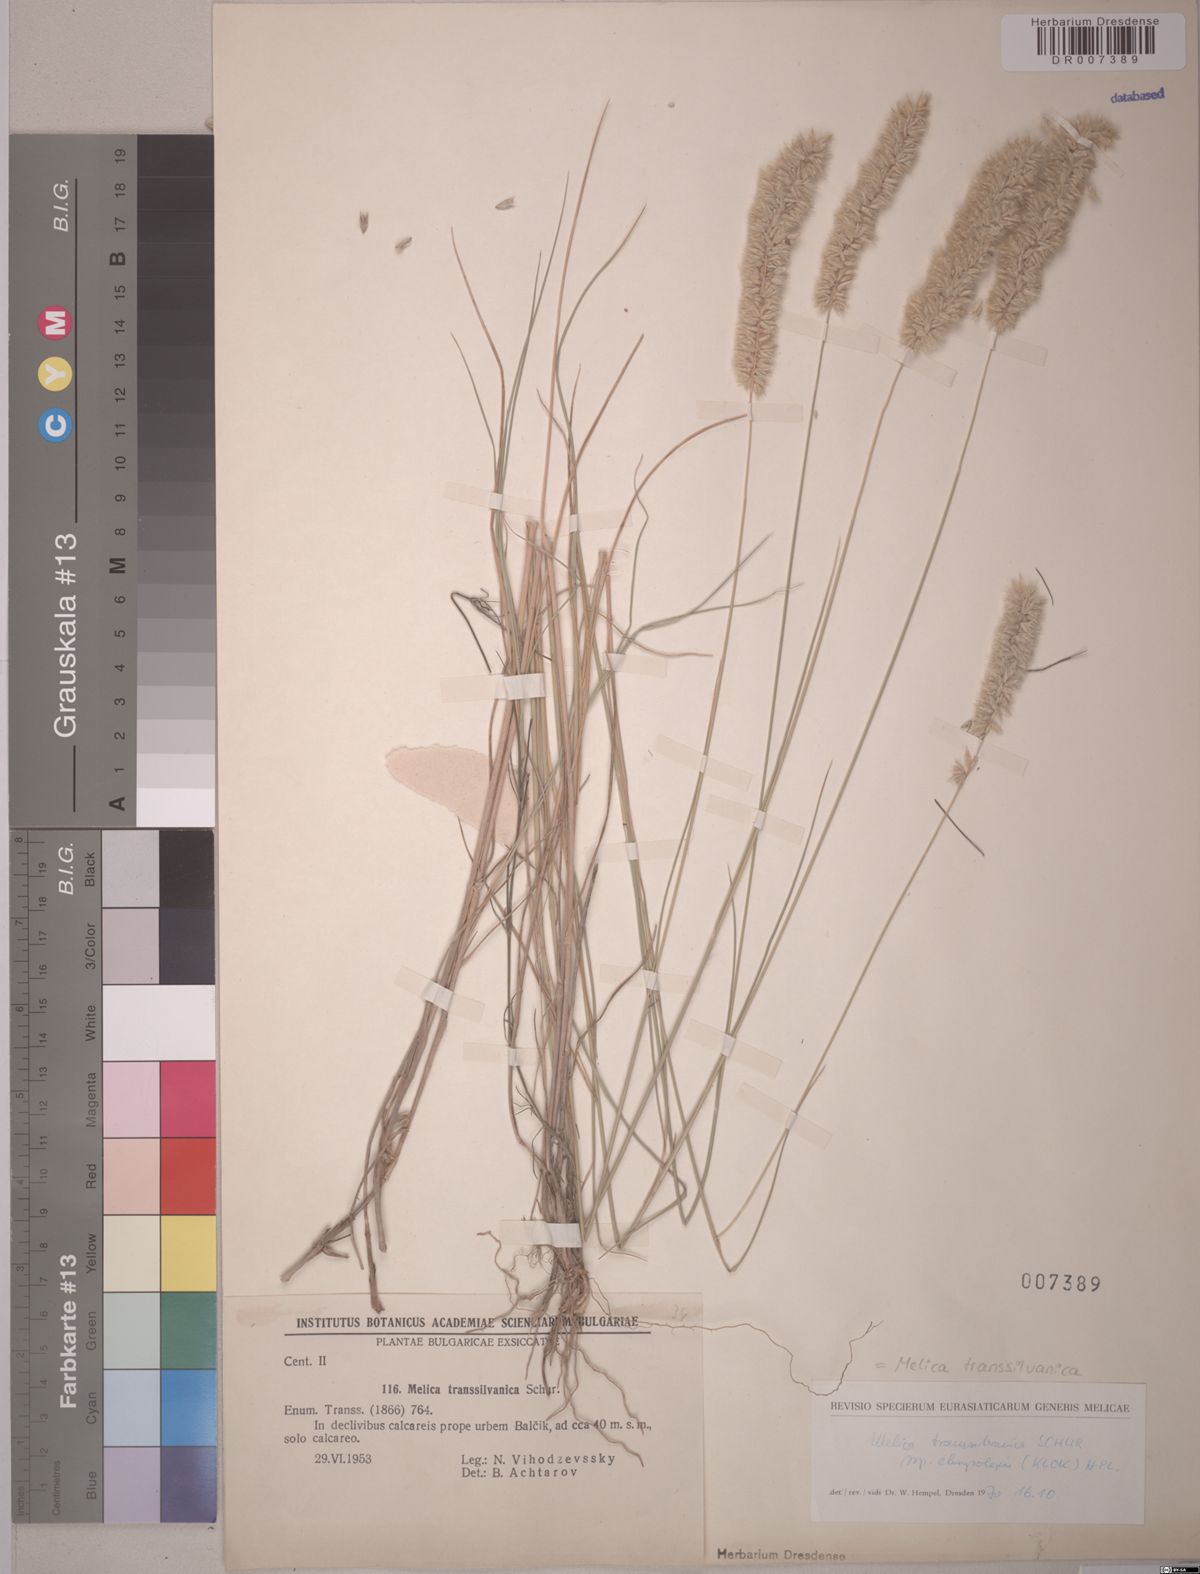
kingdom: Plantae
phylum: Tracheophyta
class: Liliopsida
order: Poales
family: Poaceae
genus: Melica
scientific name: Melica transsilvanica
